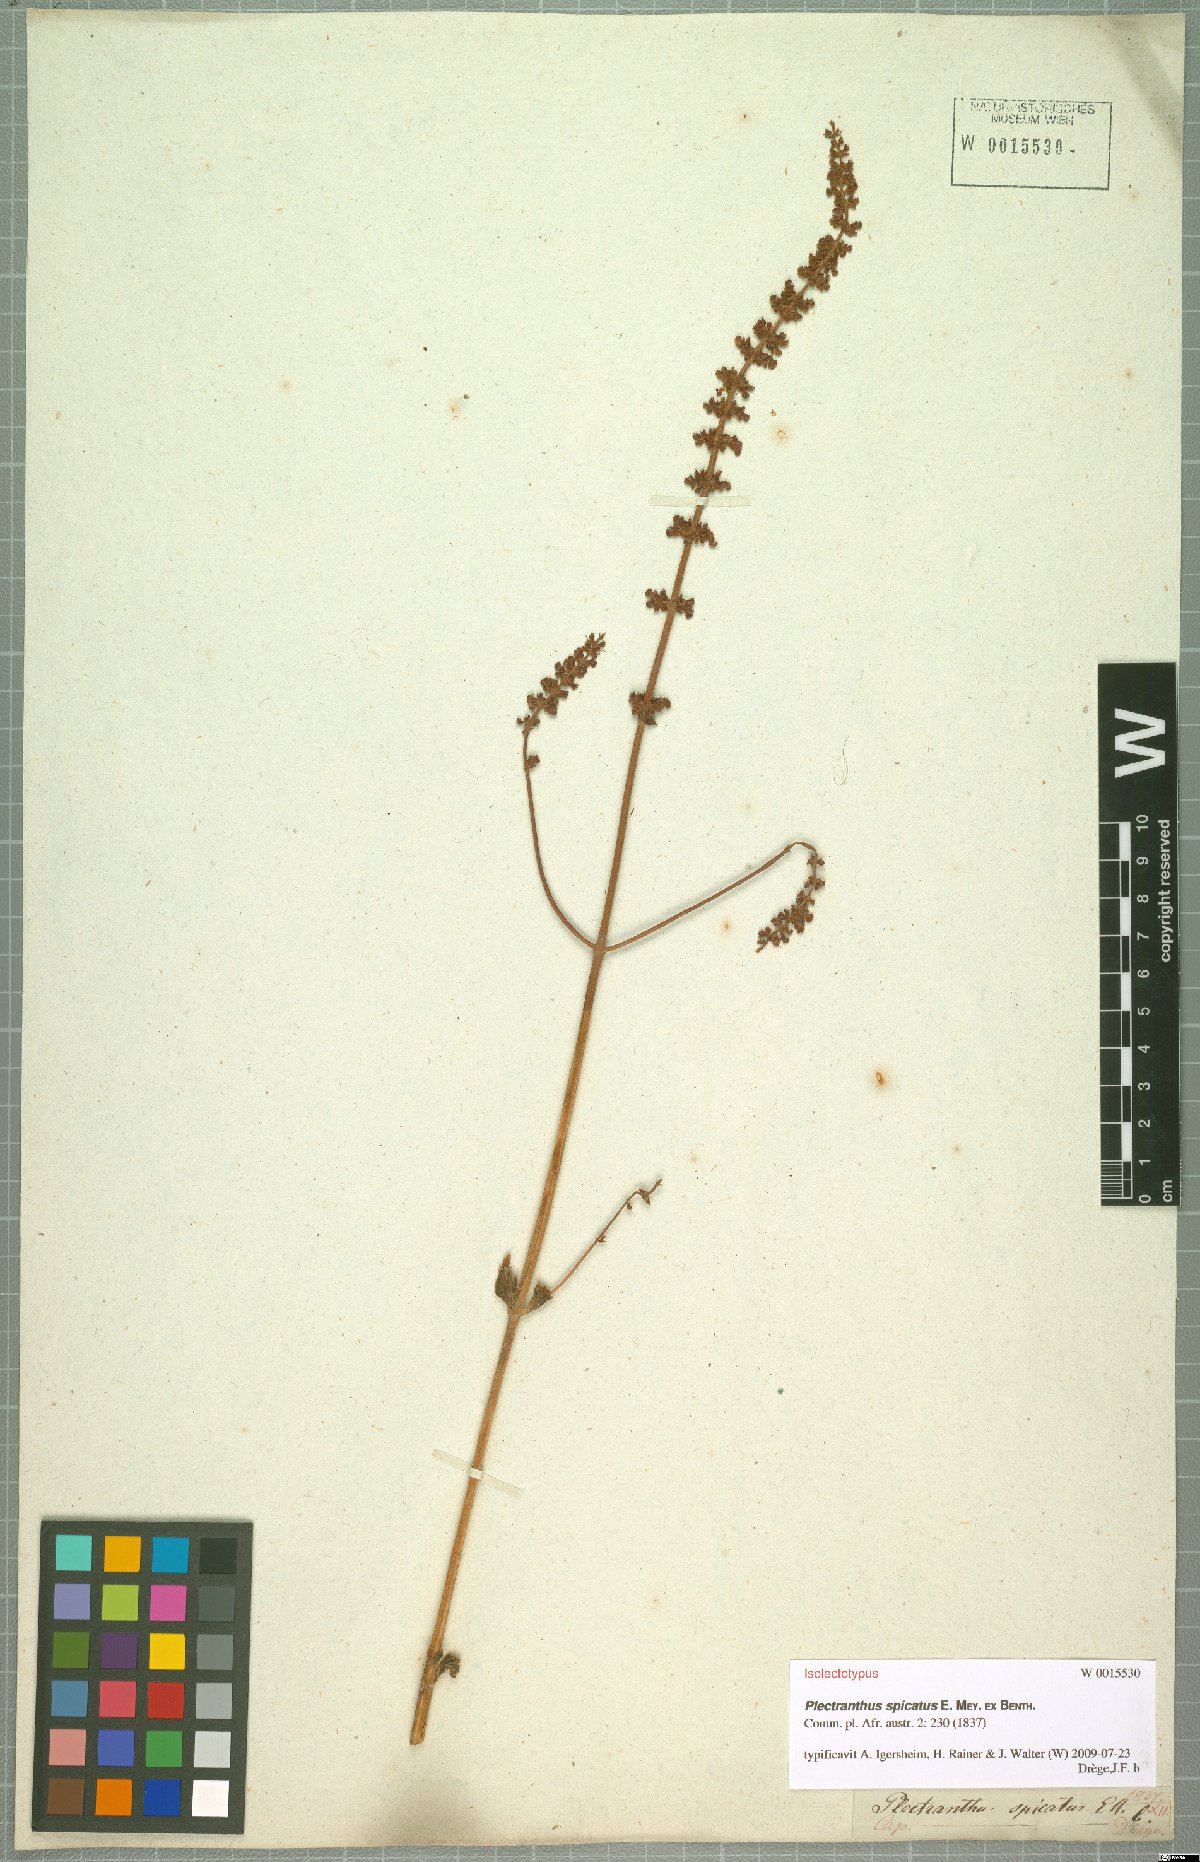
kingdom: Plantae
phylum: Tracheophyta
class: Magnoliopsida
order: Lamiales
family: Lamiaceae
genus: Coleus
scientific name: Coleus subspicatus
